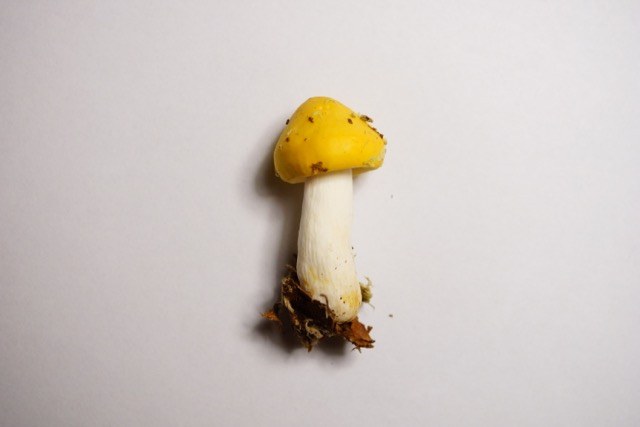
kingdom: Fungi
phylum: Basidiomycota
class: Agaricomycetes
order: Russulales
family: Russulaceae
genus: Russula
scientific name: Russula claroflava
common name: birke-skørhat
